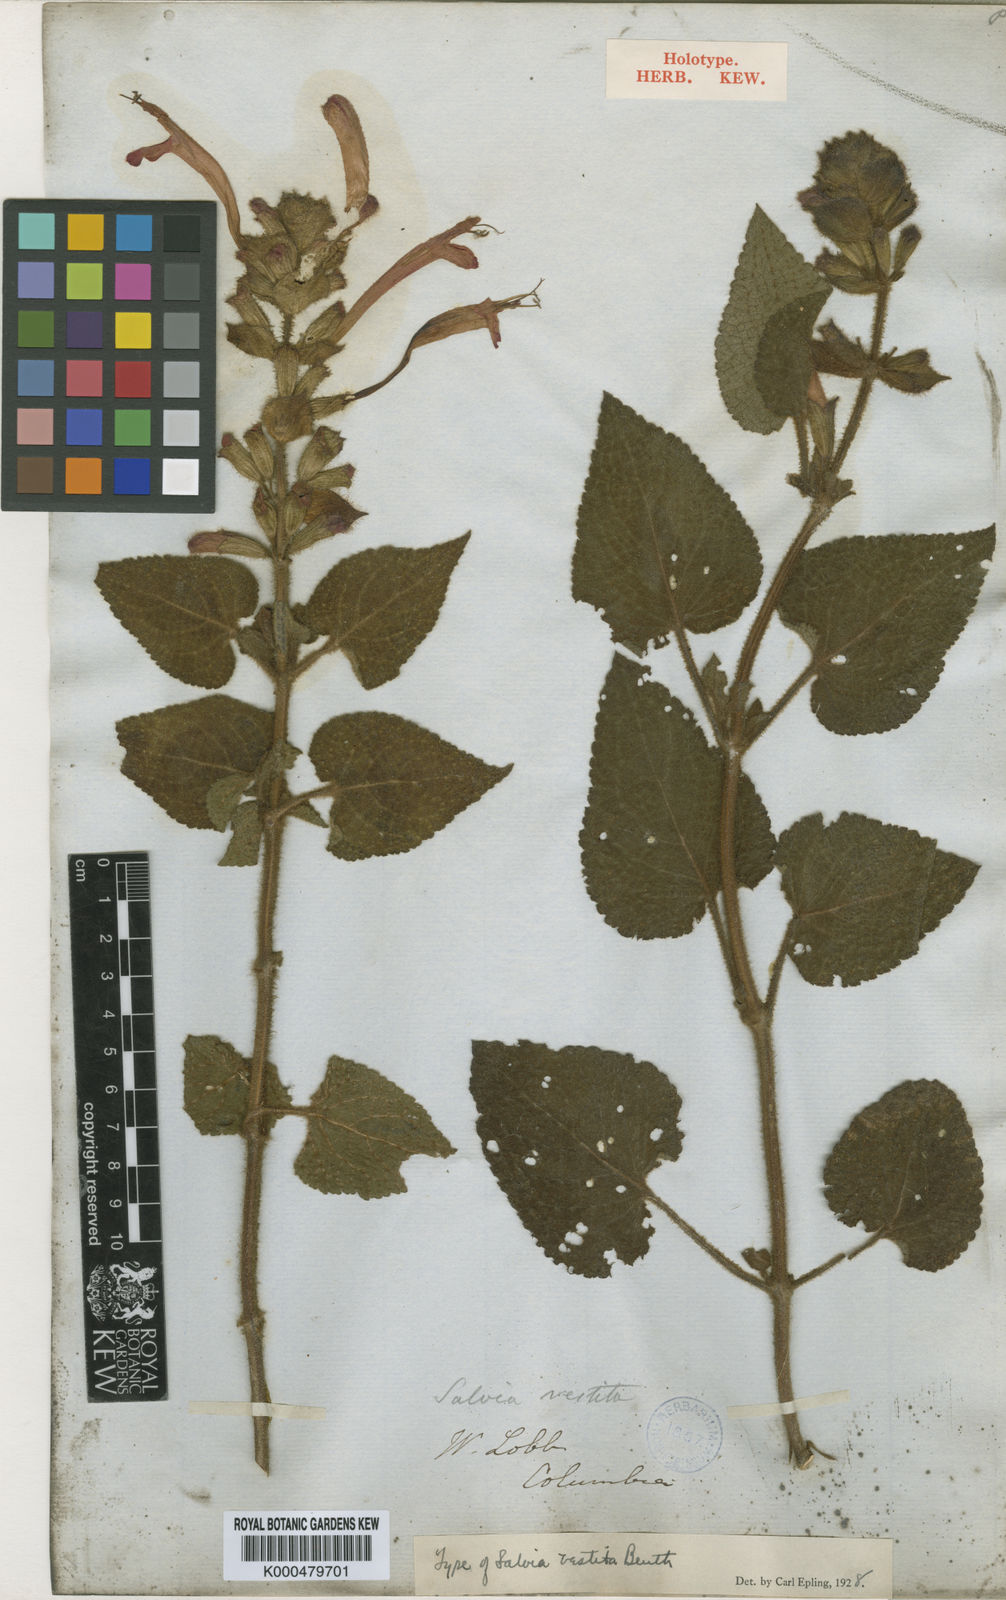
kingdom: Plantae
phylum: Tracheophyta
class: Magnoliopsida
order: Lamiales
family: Lamiaceae
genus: Salvia
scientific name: Salvia vestita
